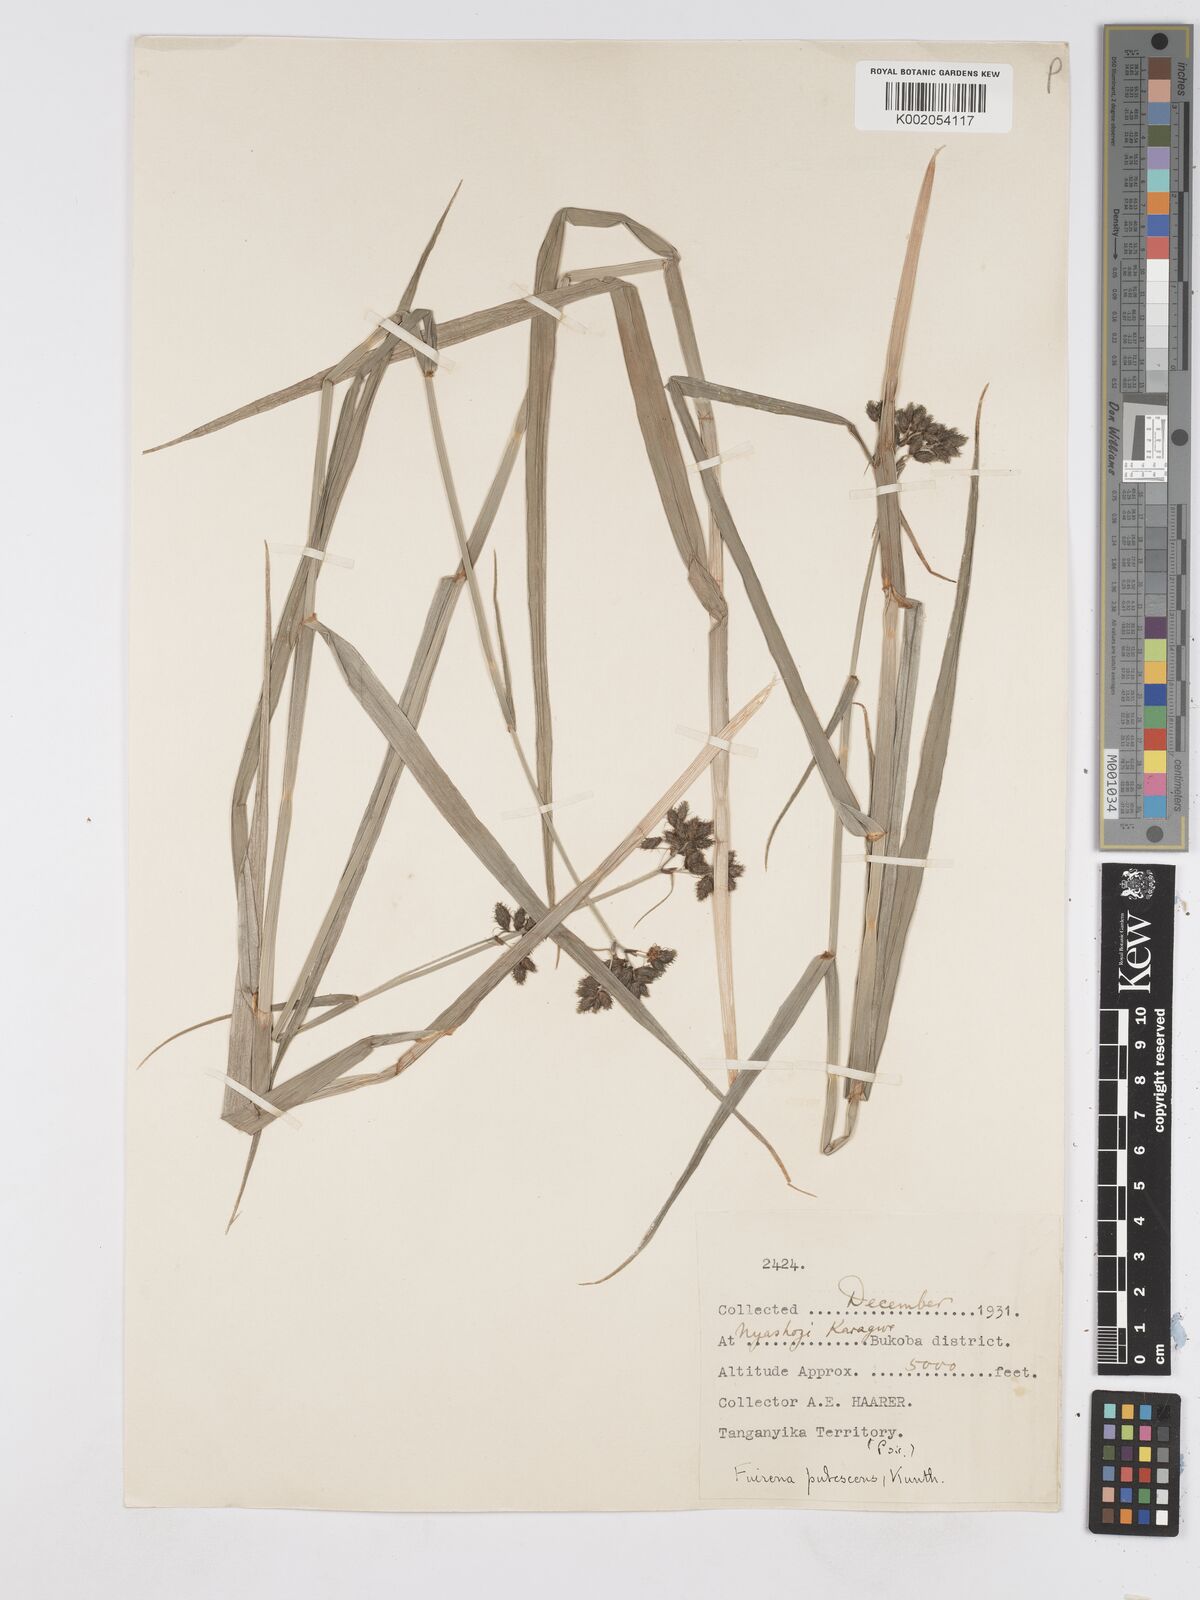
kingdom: Plantae
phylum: Tracheophyta
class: Liliopsida
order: Poales
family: Cyperaceae
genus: Fuirena
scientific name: Fuirena pubescens
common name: Hairy sedge
